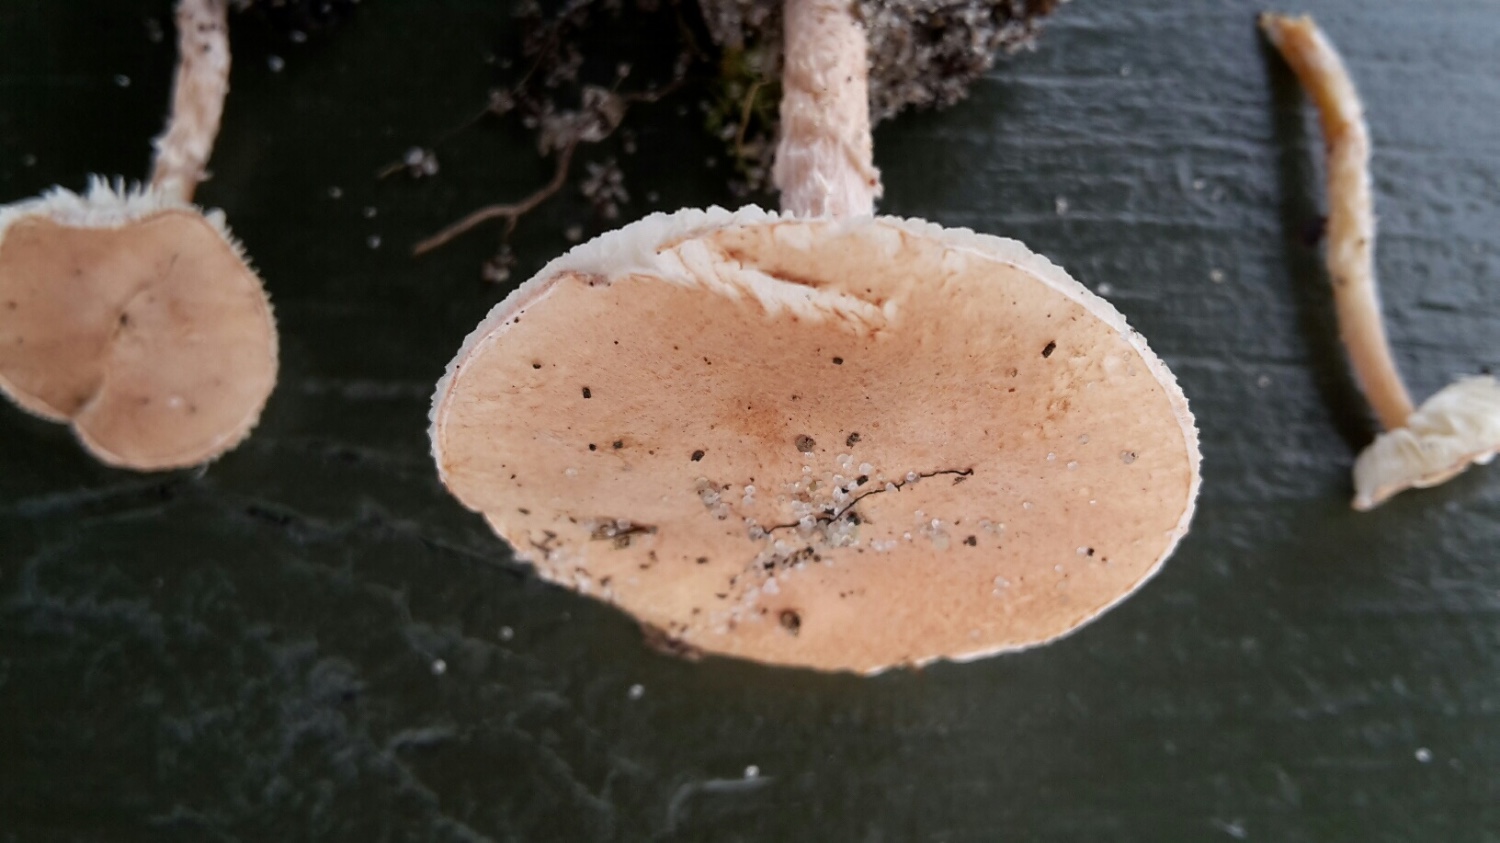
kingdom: Fungi
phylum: Basidiomycota
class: Agaricomycetes
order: Agaricales
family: Agaricaceae
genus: Lepiota
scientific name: Lepiota subincarnata
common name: kødfarvet parasolhat
